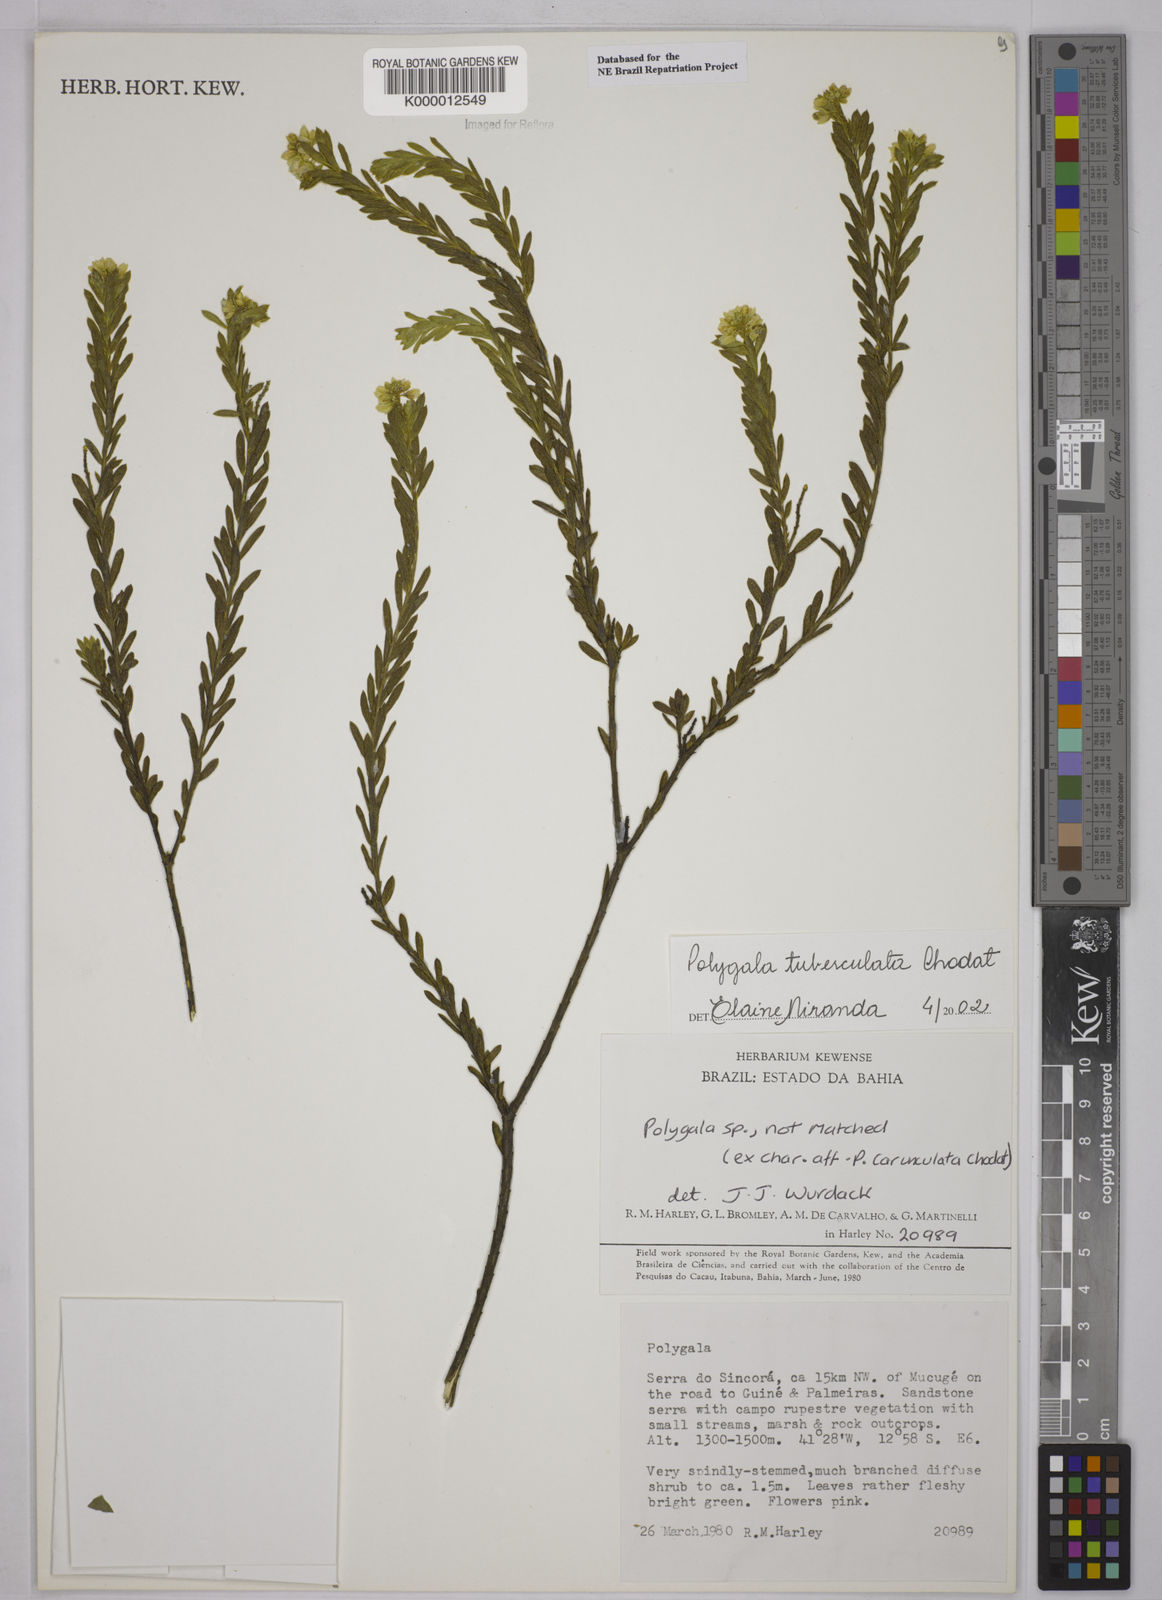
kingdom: Plantae
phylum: Tracheophyta
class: Magnoliopsida
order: Fabales
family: Polygalaceae
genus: Polygala
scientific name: Polygala tuberculata
